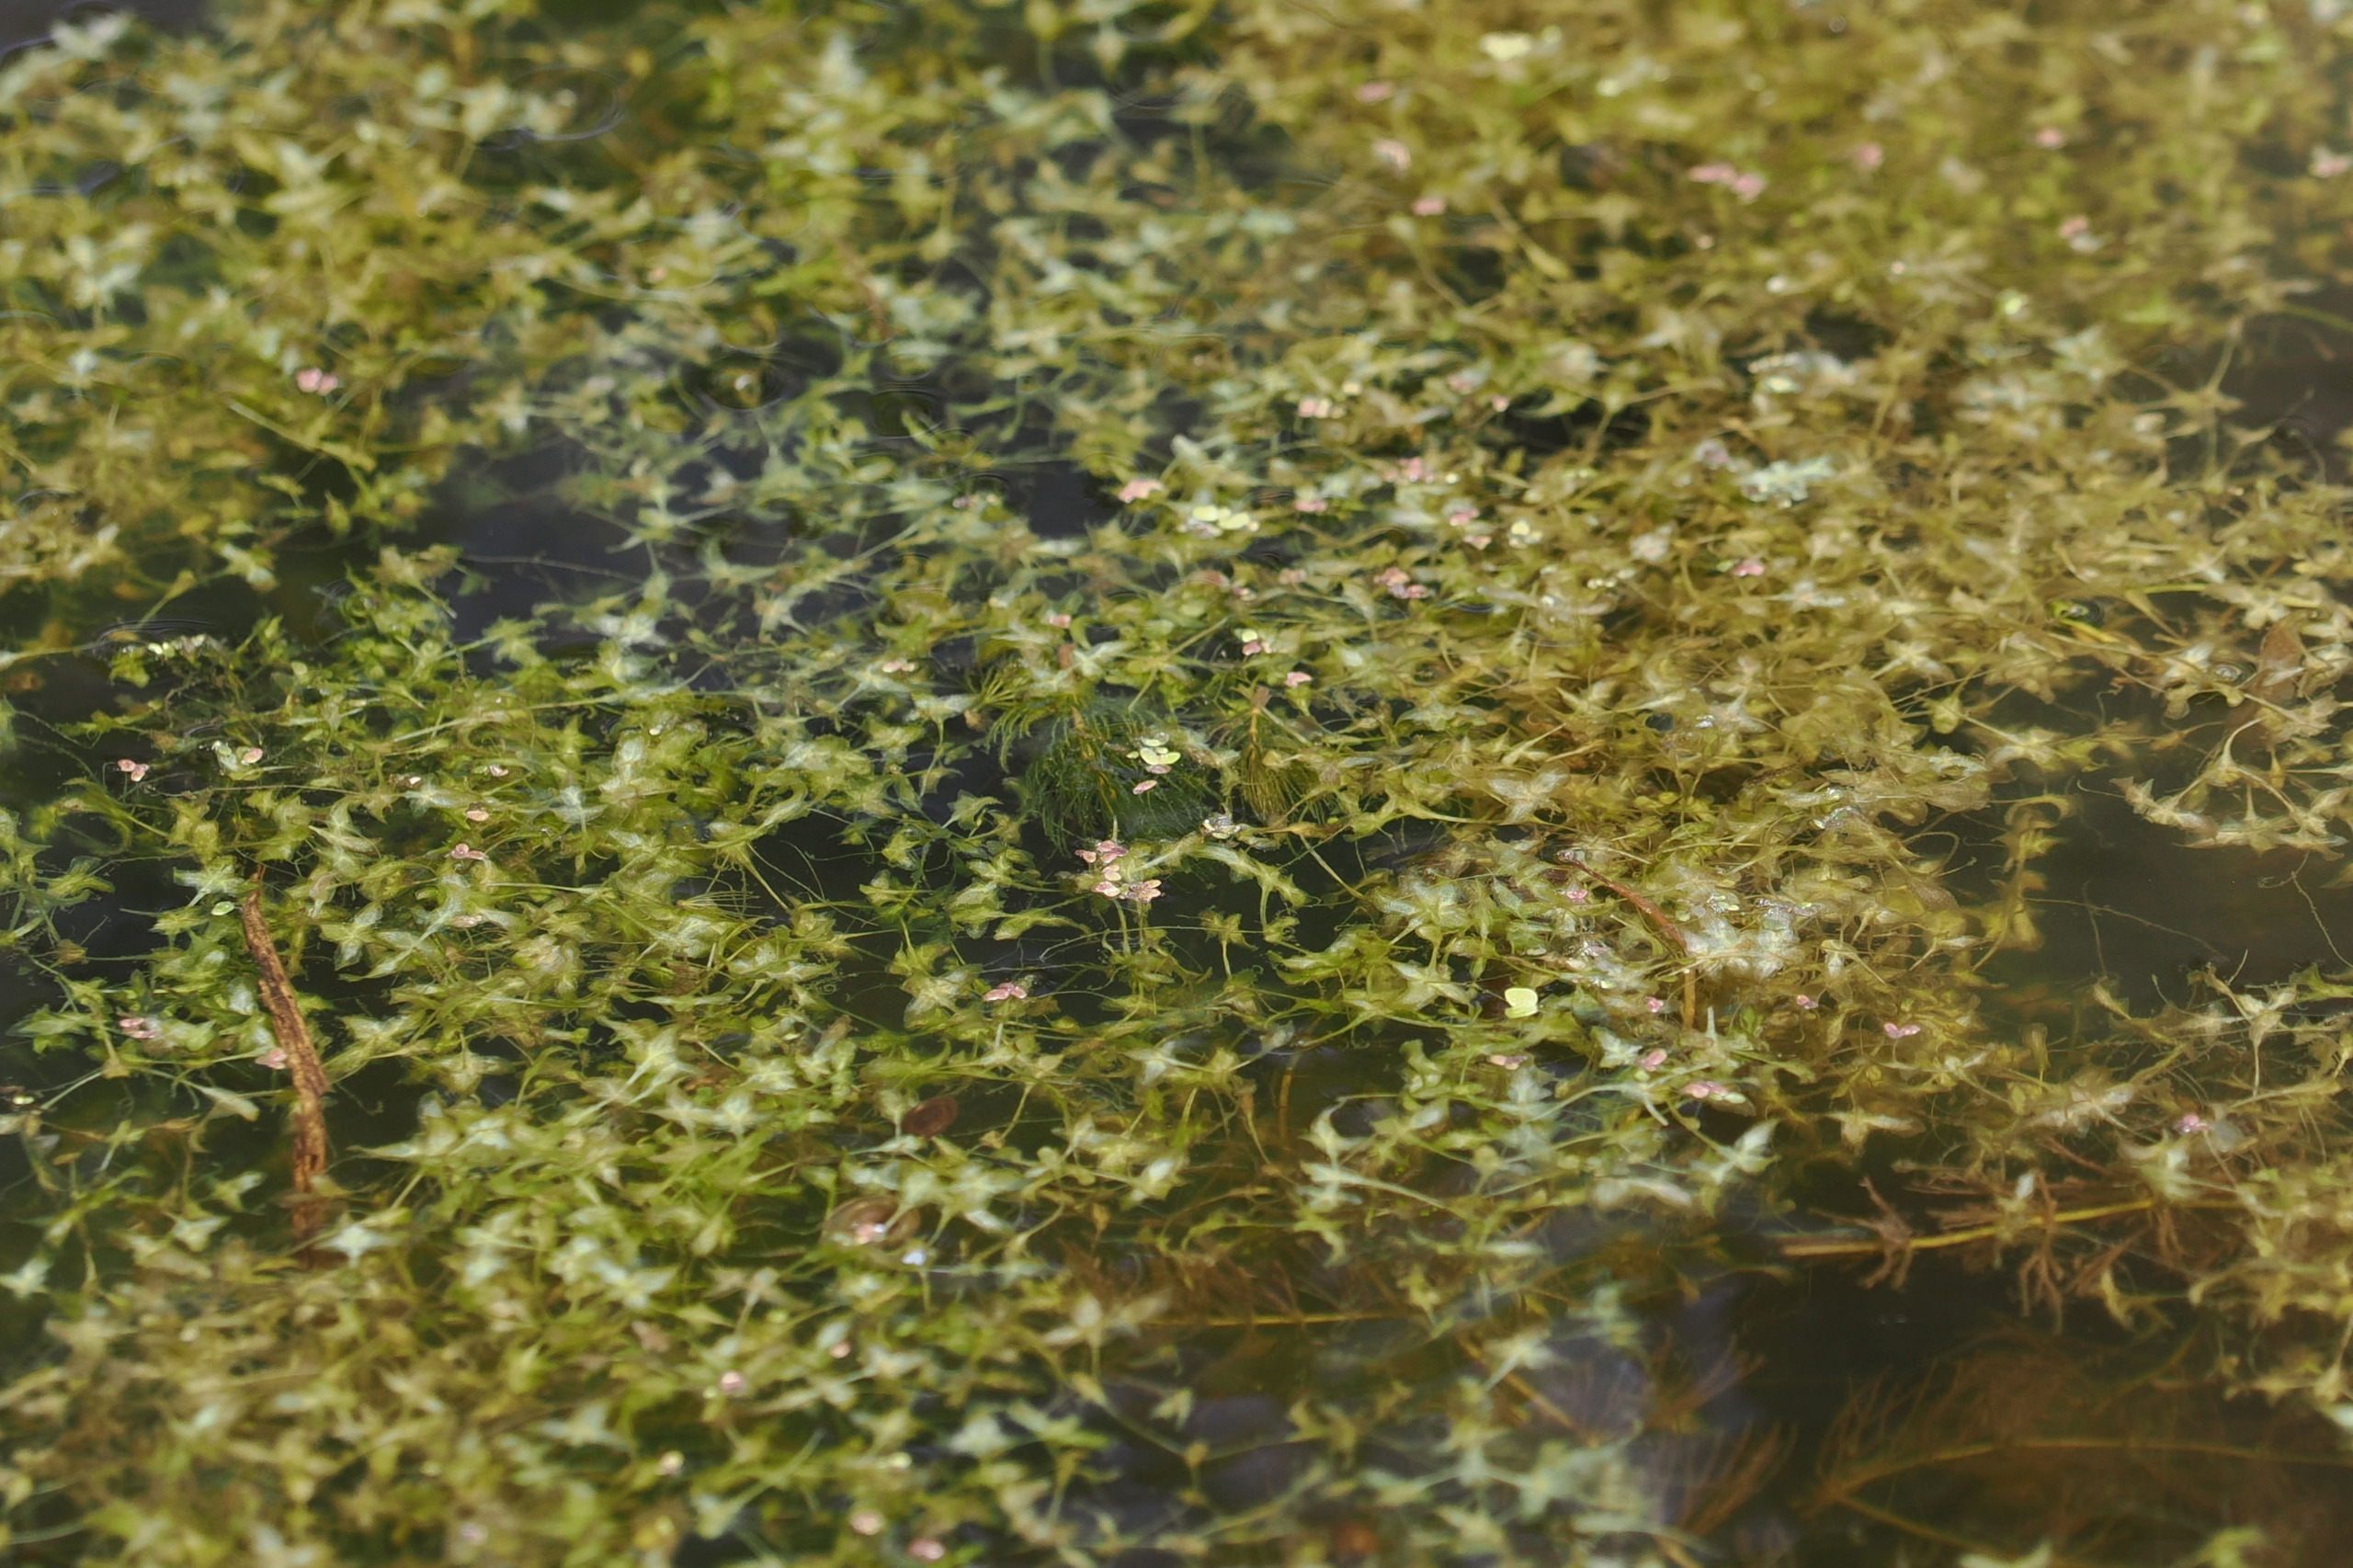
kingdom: Plantae
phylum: Tracheophyta
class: Liliopsida
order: Alismatales
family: Araceae
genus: Lemna
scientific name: Lemna trisulca
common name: Kors-andemad
